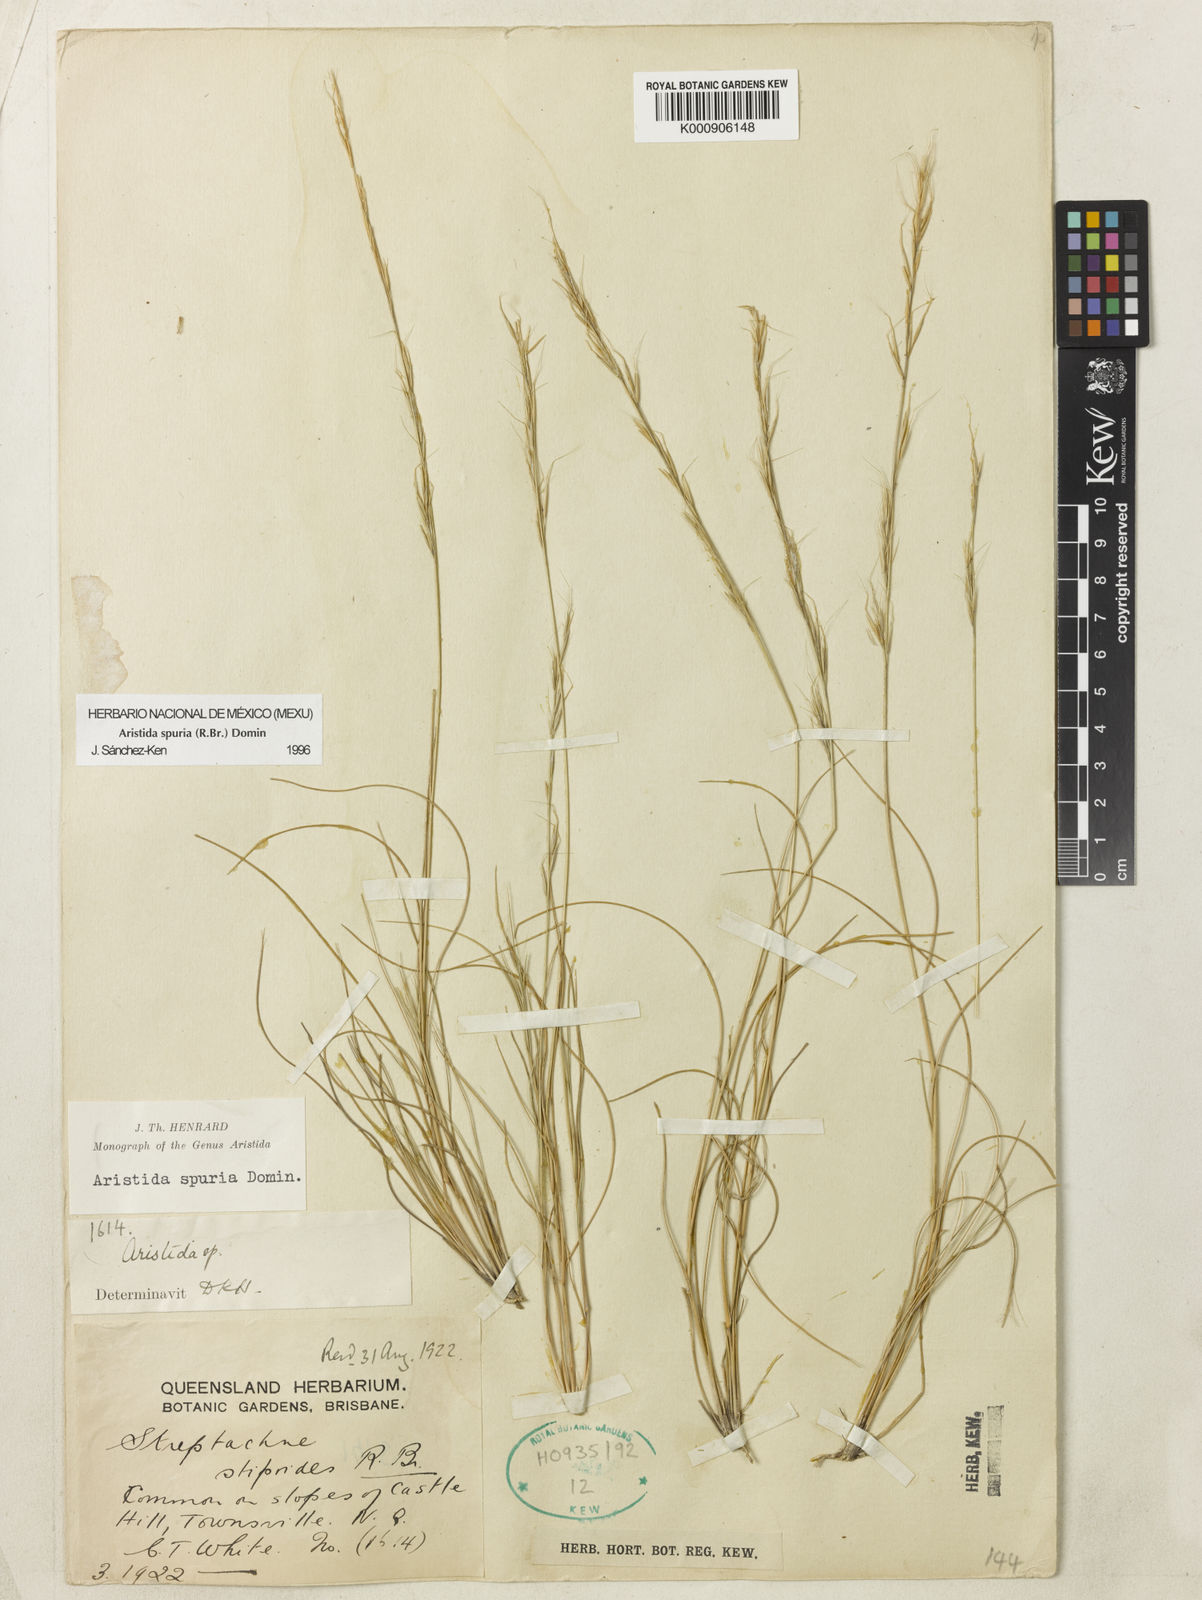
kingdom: Plantae
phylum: Tracheophyta
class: Liliopsida
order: Poales
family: Poaceae
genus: Aristida
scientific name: Aristida spuria
